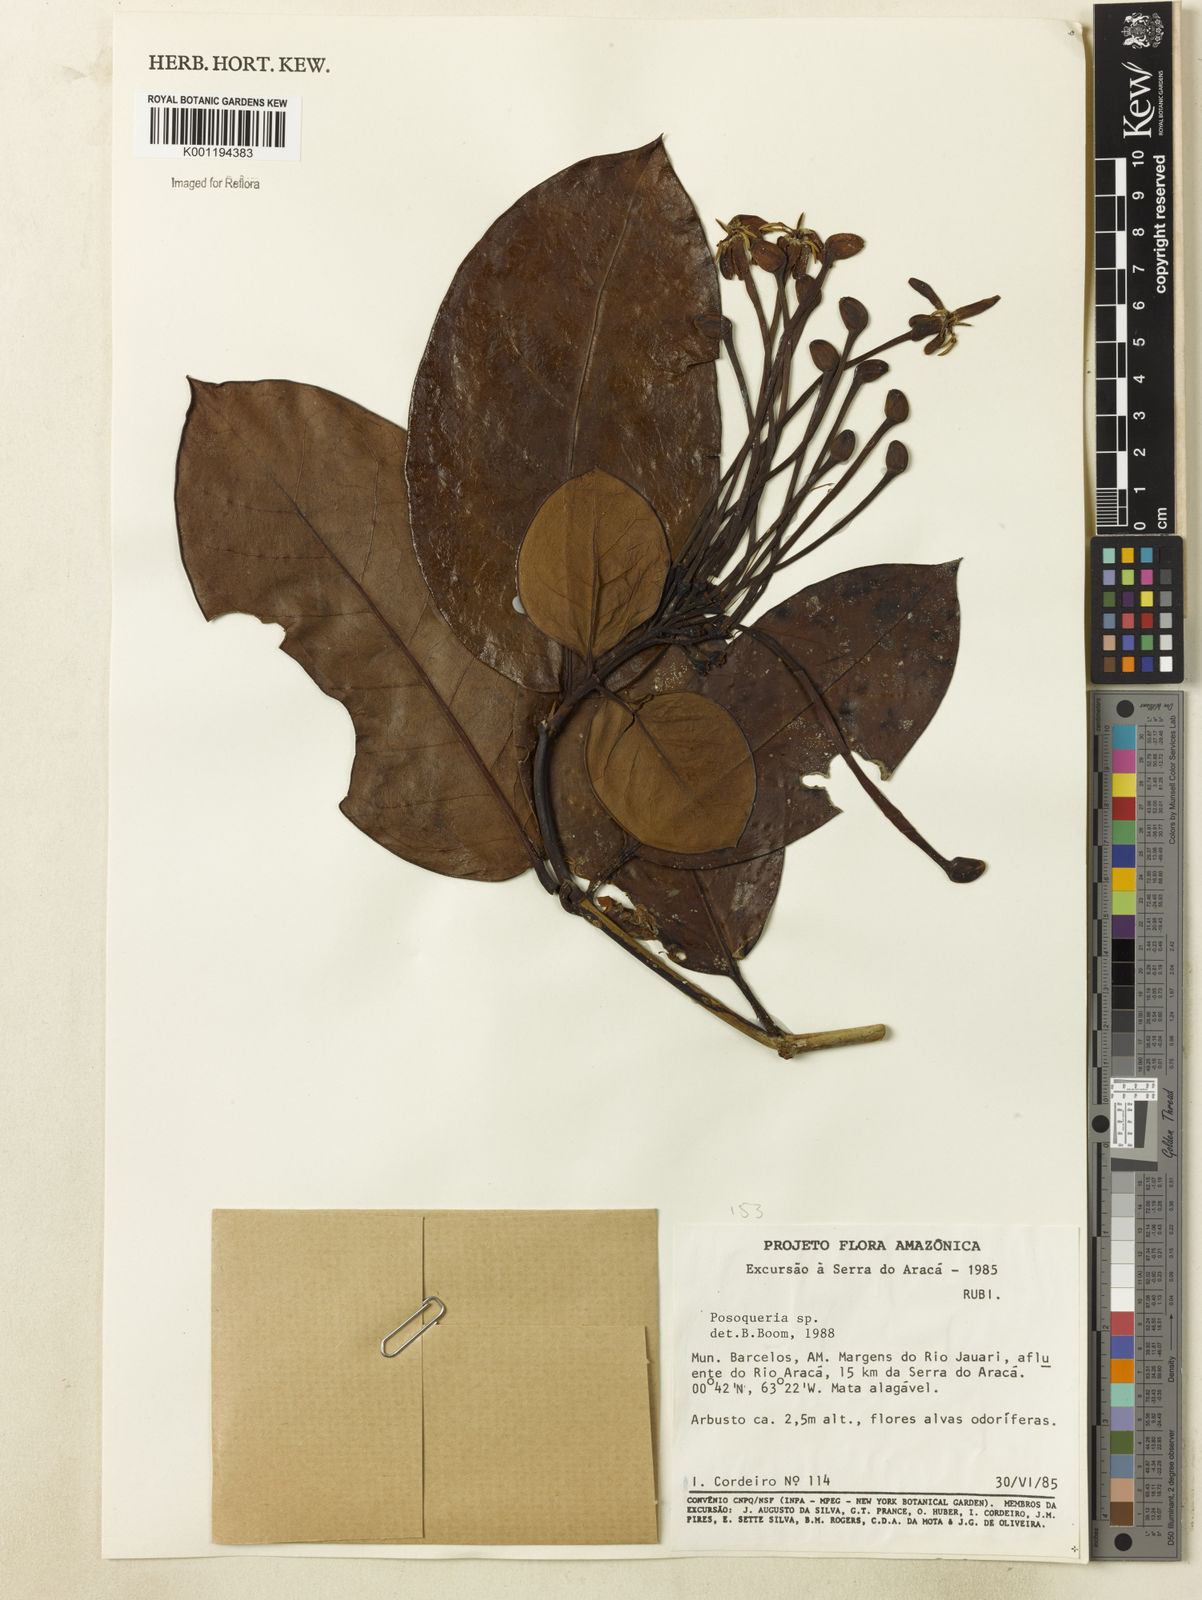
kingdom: Plantae
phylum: Tracheophyta
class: Magnoliopsida
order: Gentianales
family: Rubiaceae
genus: Posoqueria
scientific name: Posoqueria
